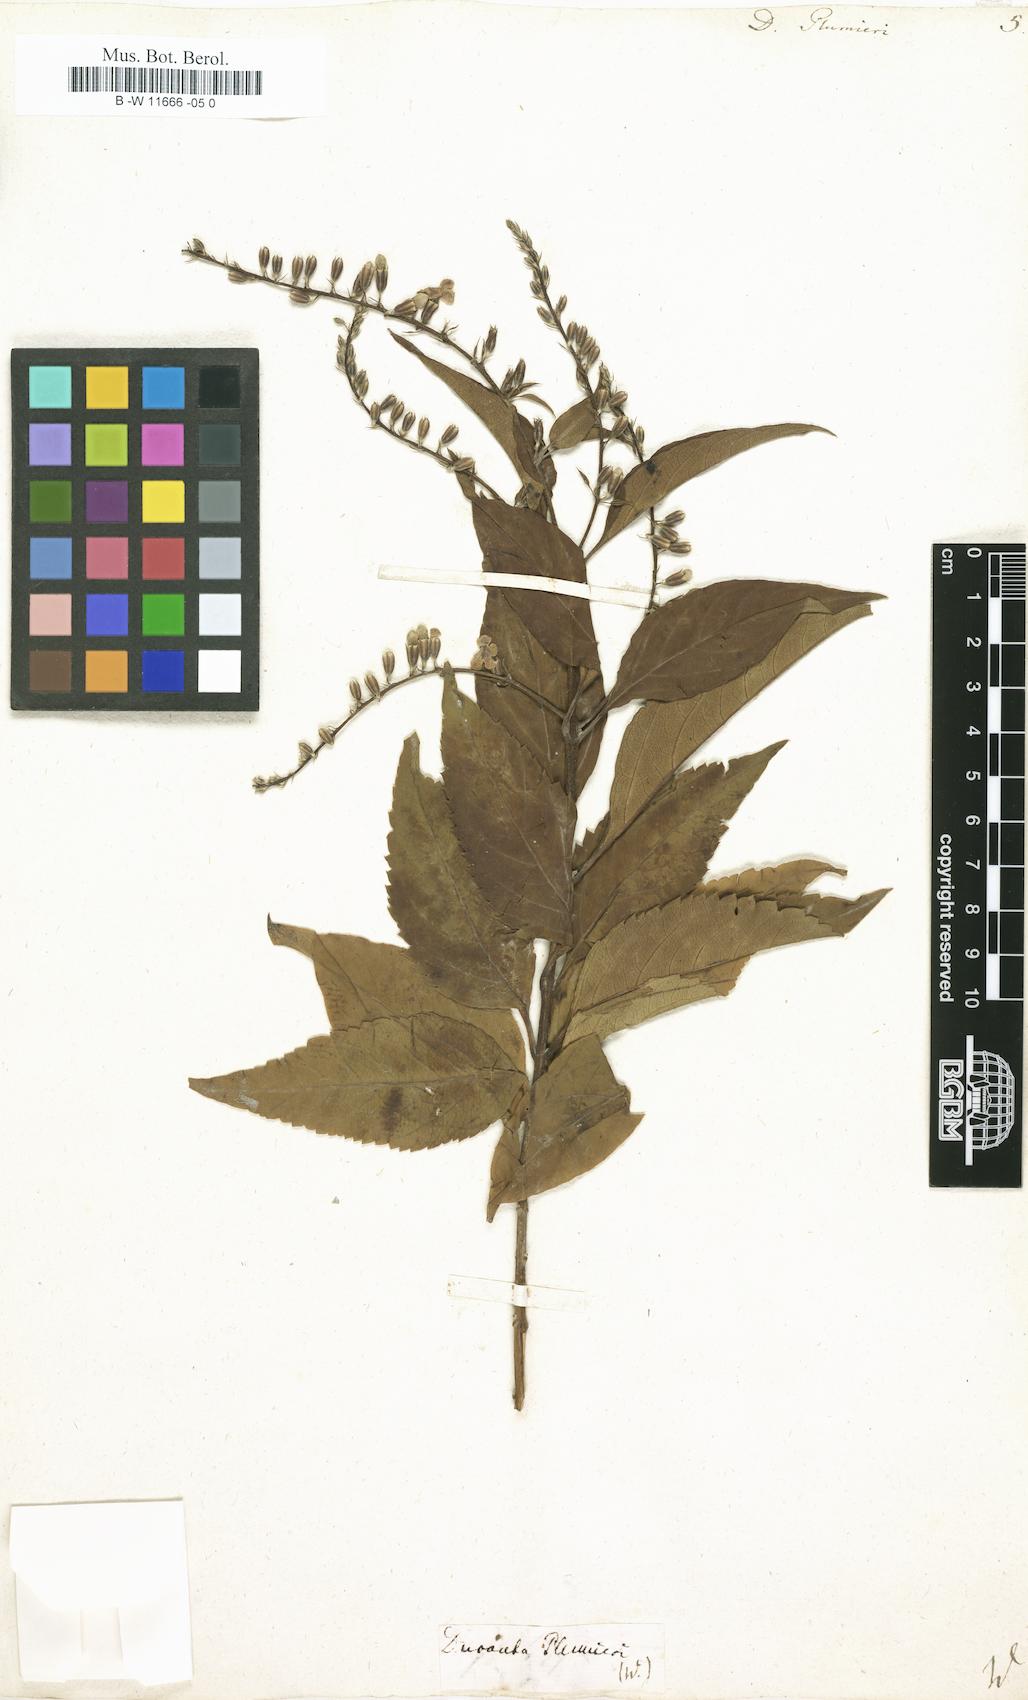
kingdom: Plantae
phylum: Tracheophyta
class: Magnoliopsida
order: Lamiales
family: Verbenaceae
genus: Duranta
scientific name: Duranta erecta
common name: Golden dewdrops
